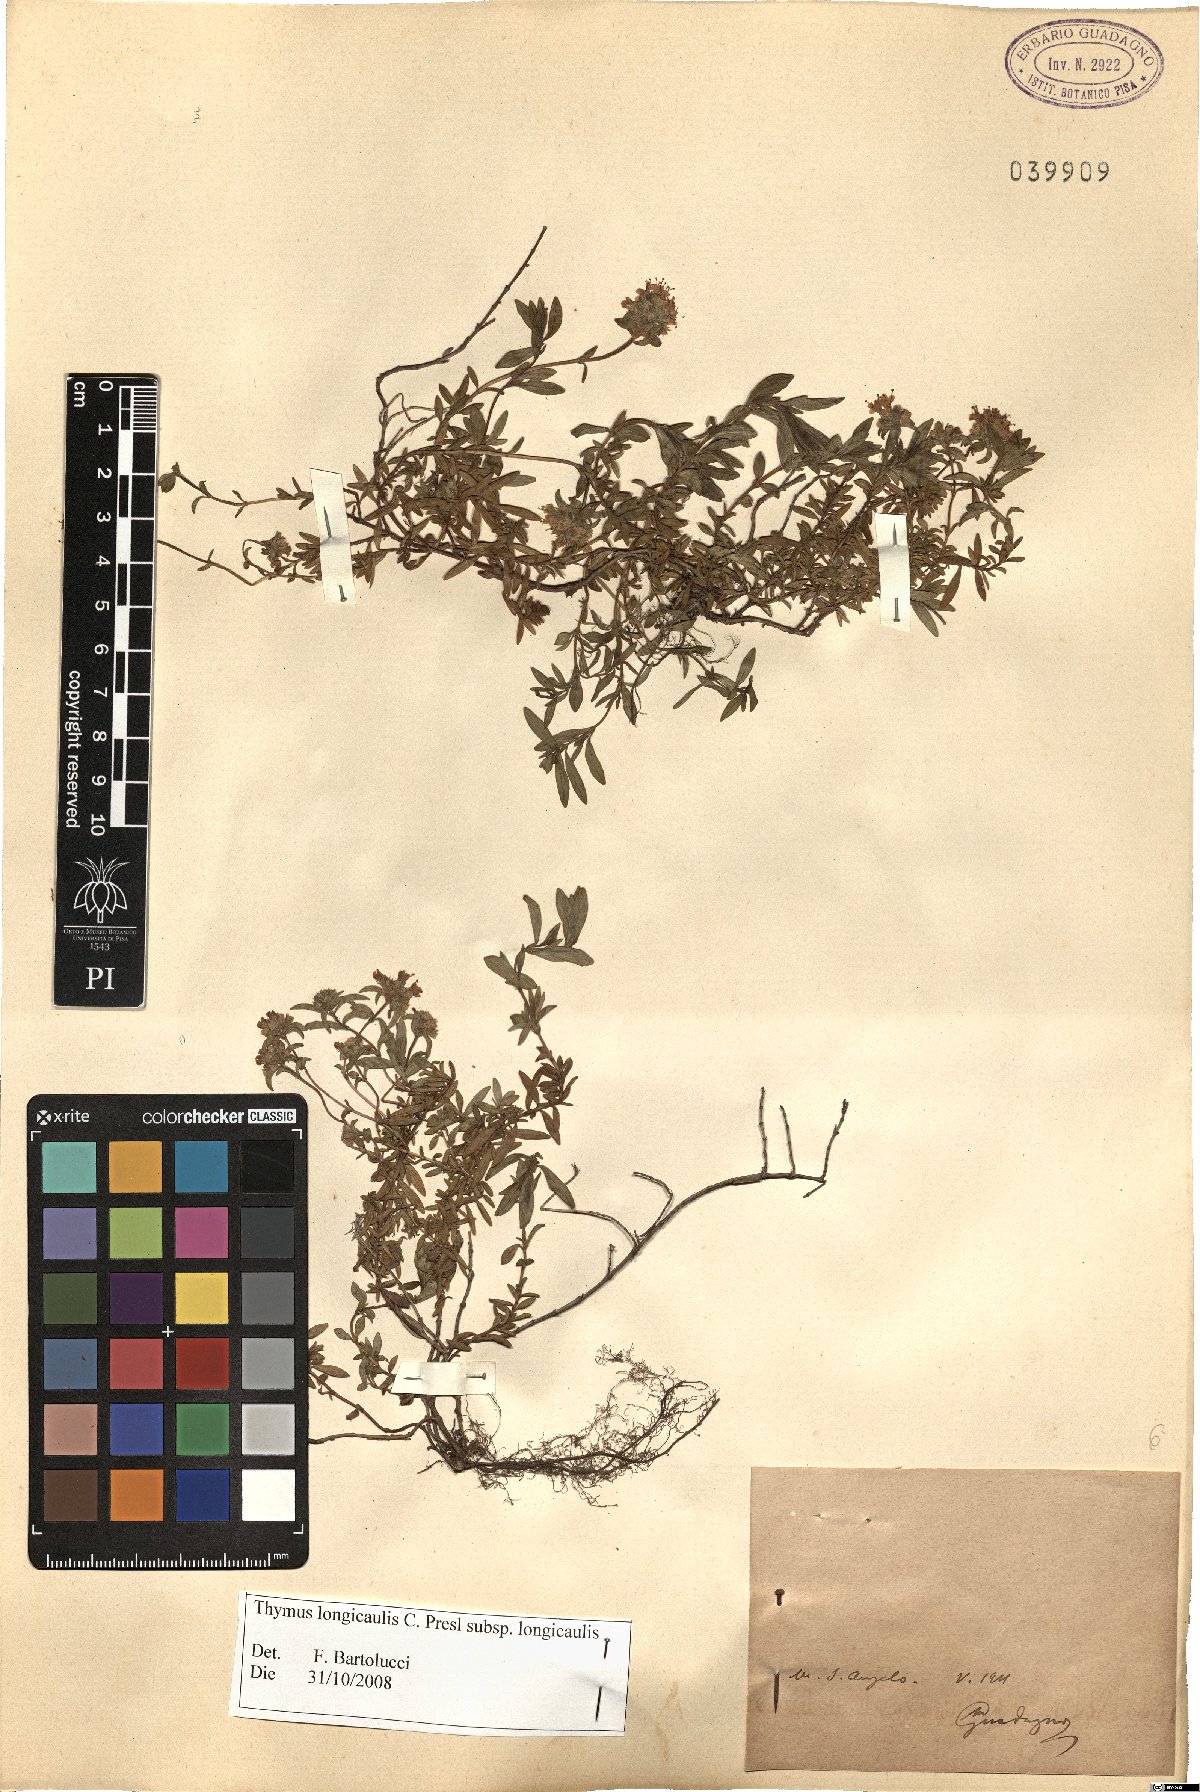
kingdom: Plantae
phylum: Tracheophyta
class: Magnoliopsida
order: Lamiales
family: Lamiaceae
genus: Thymus
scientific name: Thymus longicaulis
